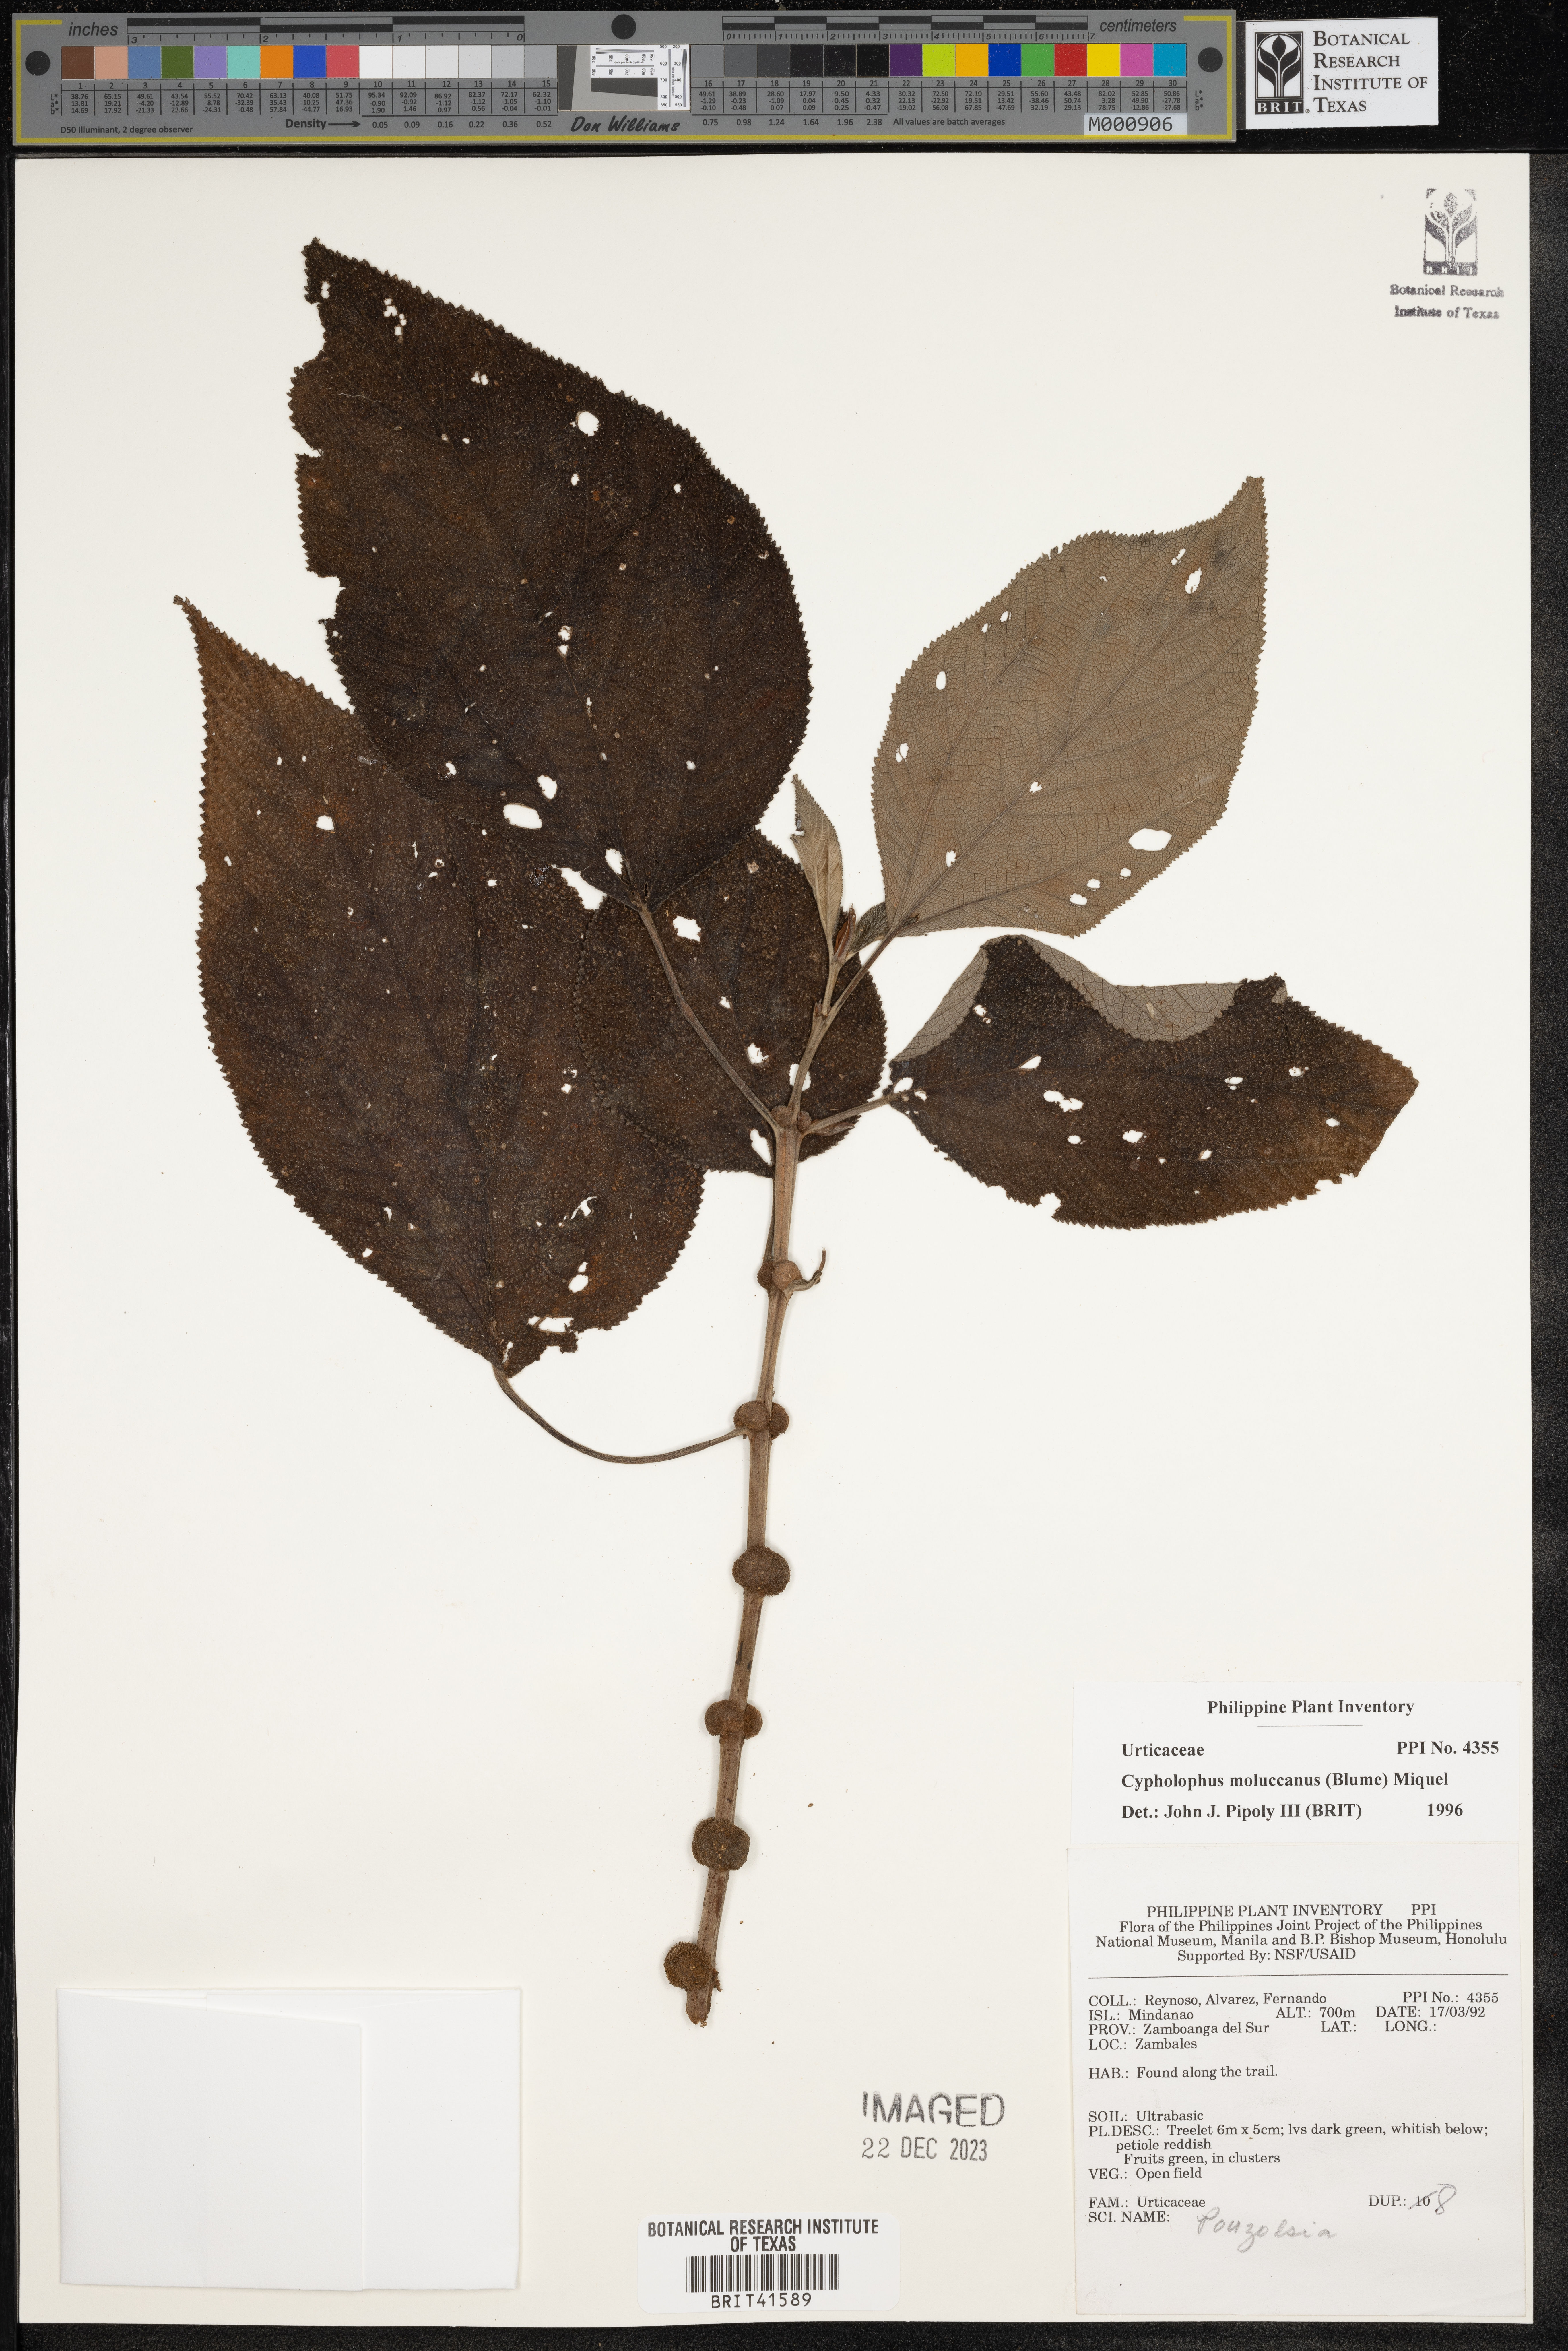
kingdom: Plantae
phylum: Tracheophyta
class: Magnoliopsida
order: Rosales
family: Urticaceae
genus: Cypholophus
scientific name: Cypholophus moluccanus
